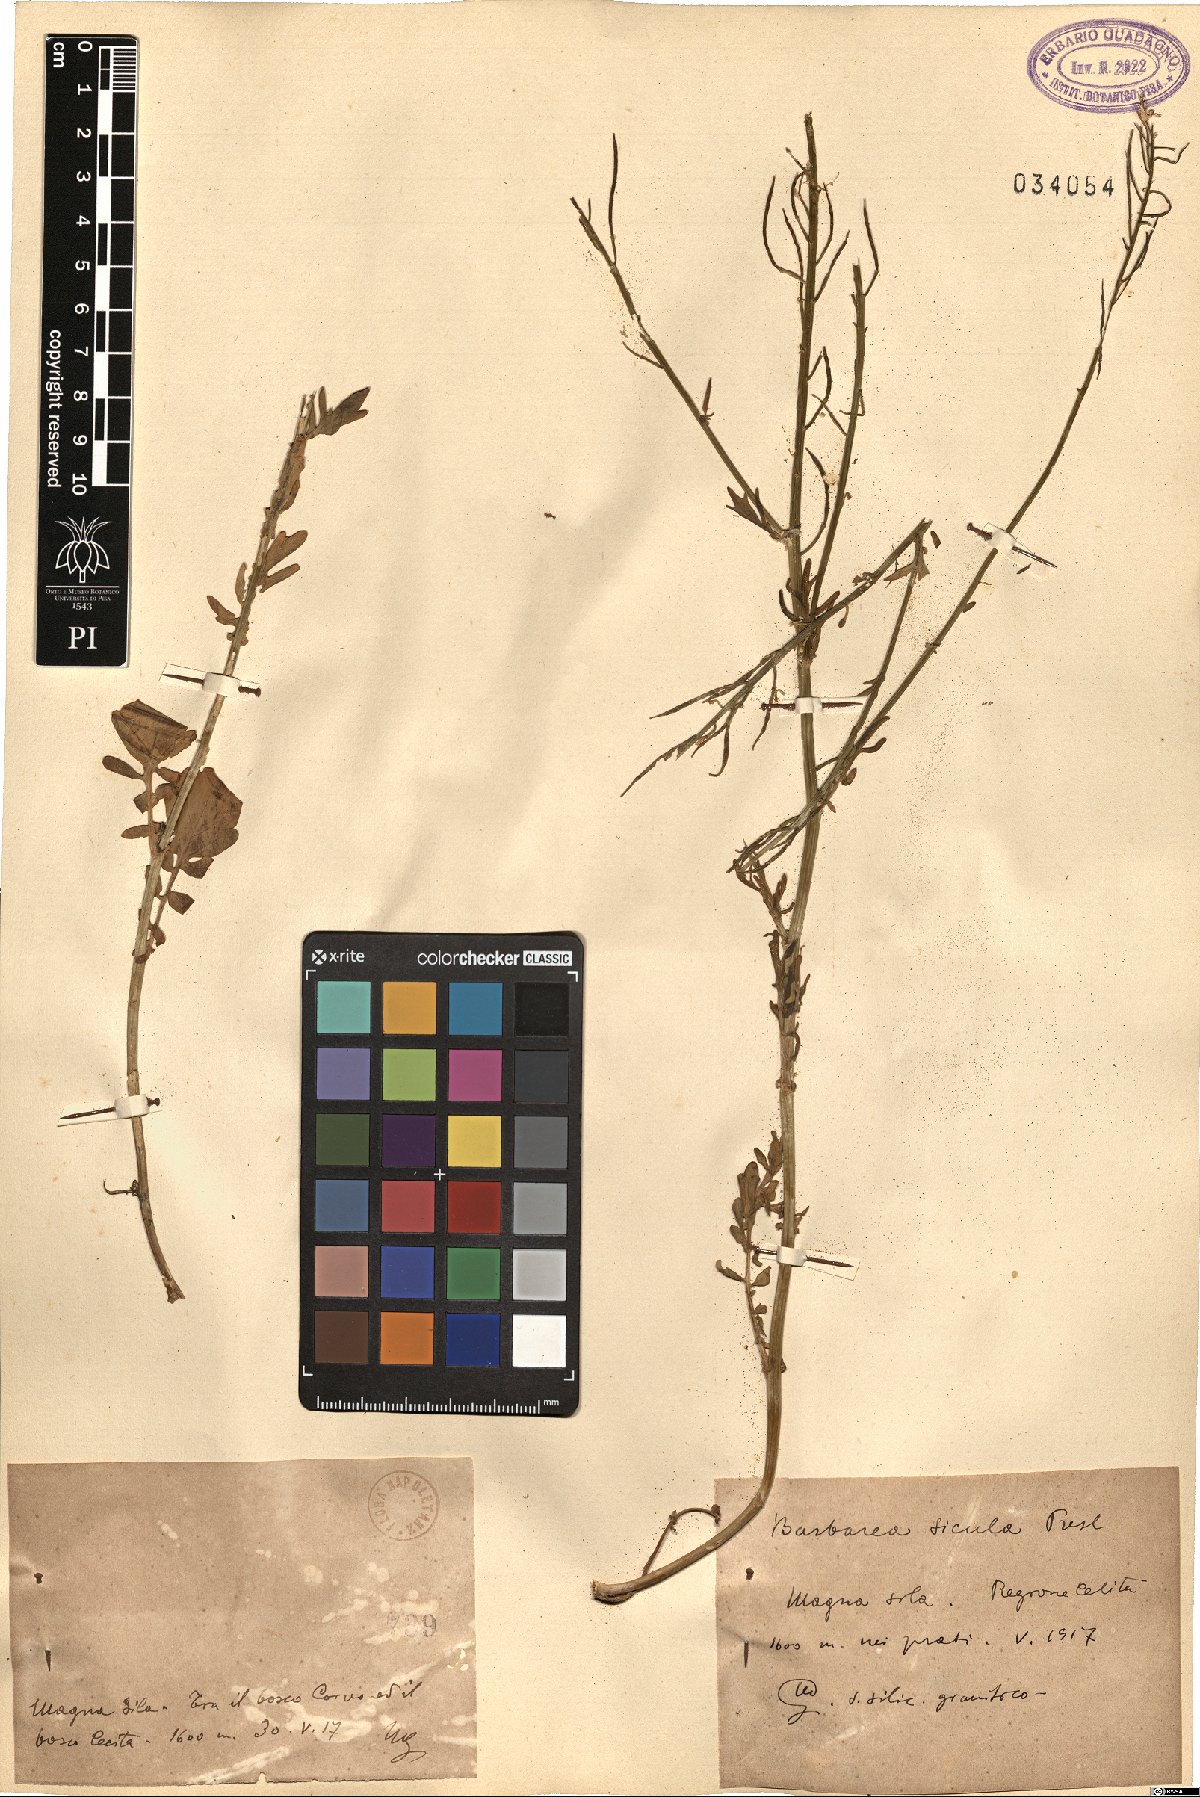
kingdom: Plantae
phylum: Tracheophyta
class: Magnoliopsida
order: Brassicales
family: Brassicaceae
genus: Barbarea
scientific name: Barbarea sicula
